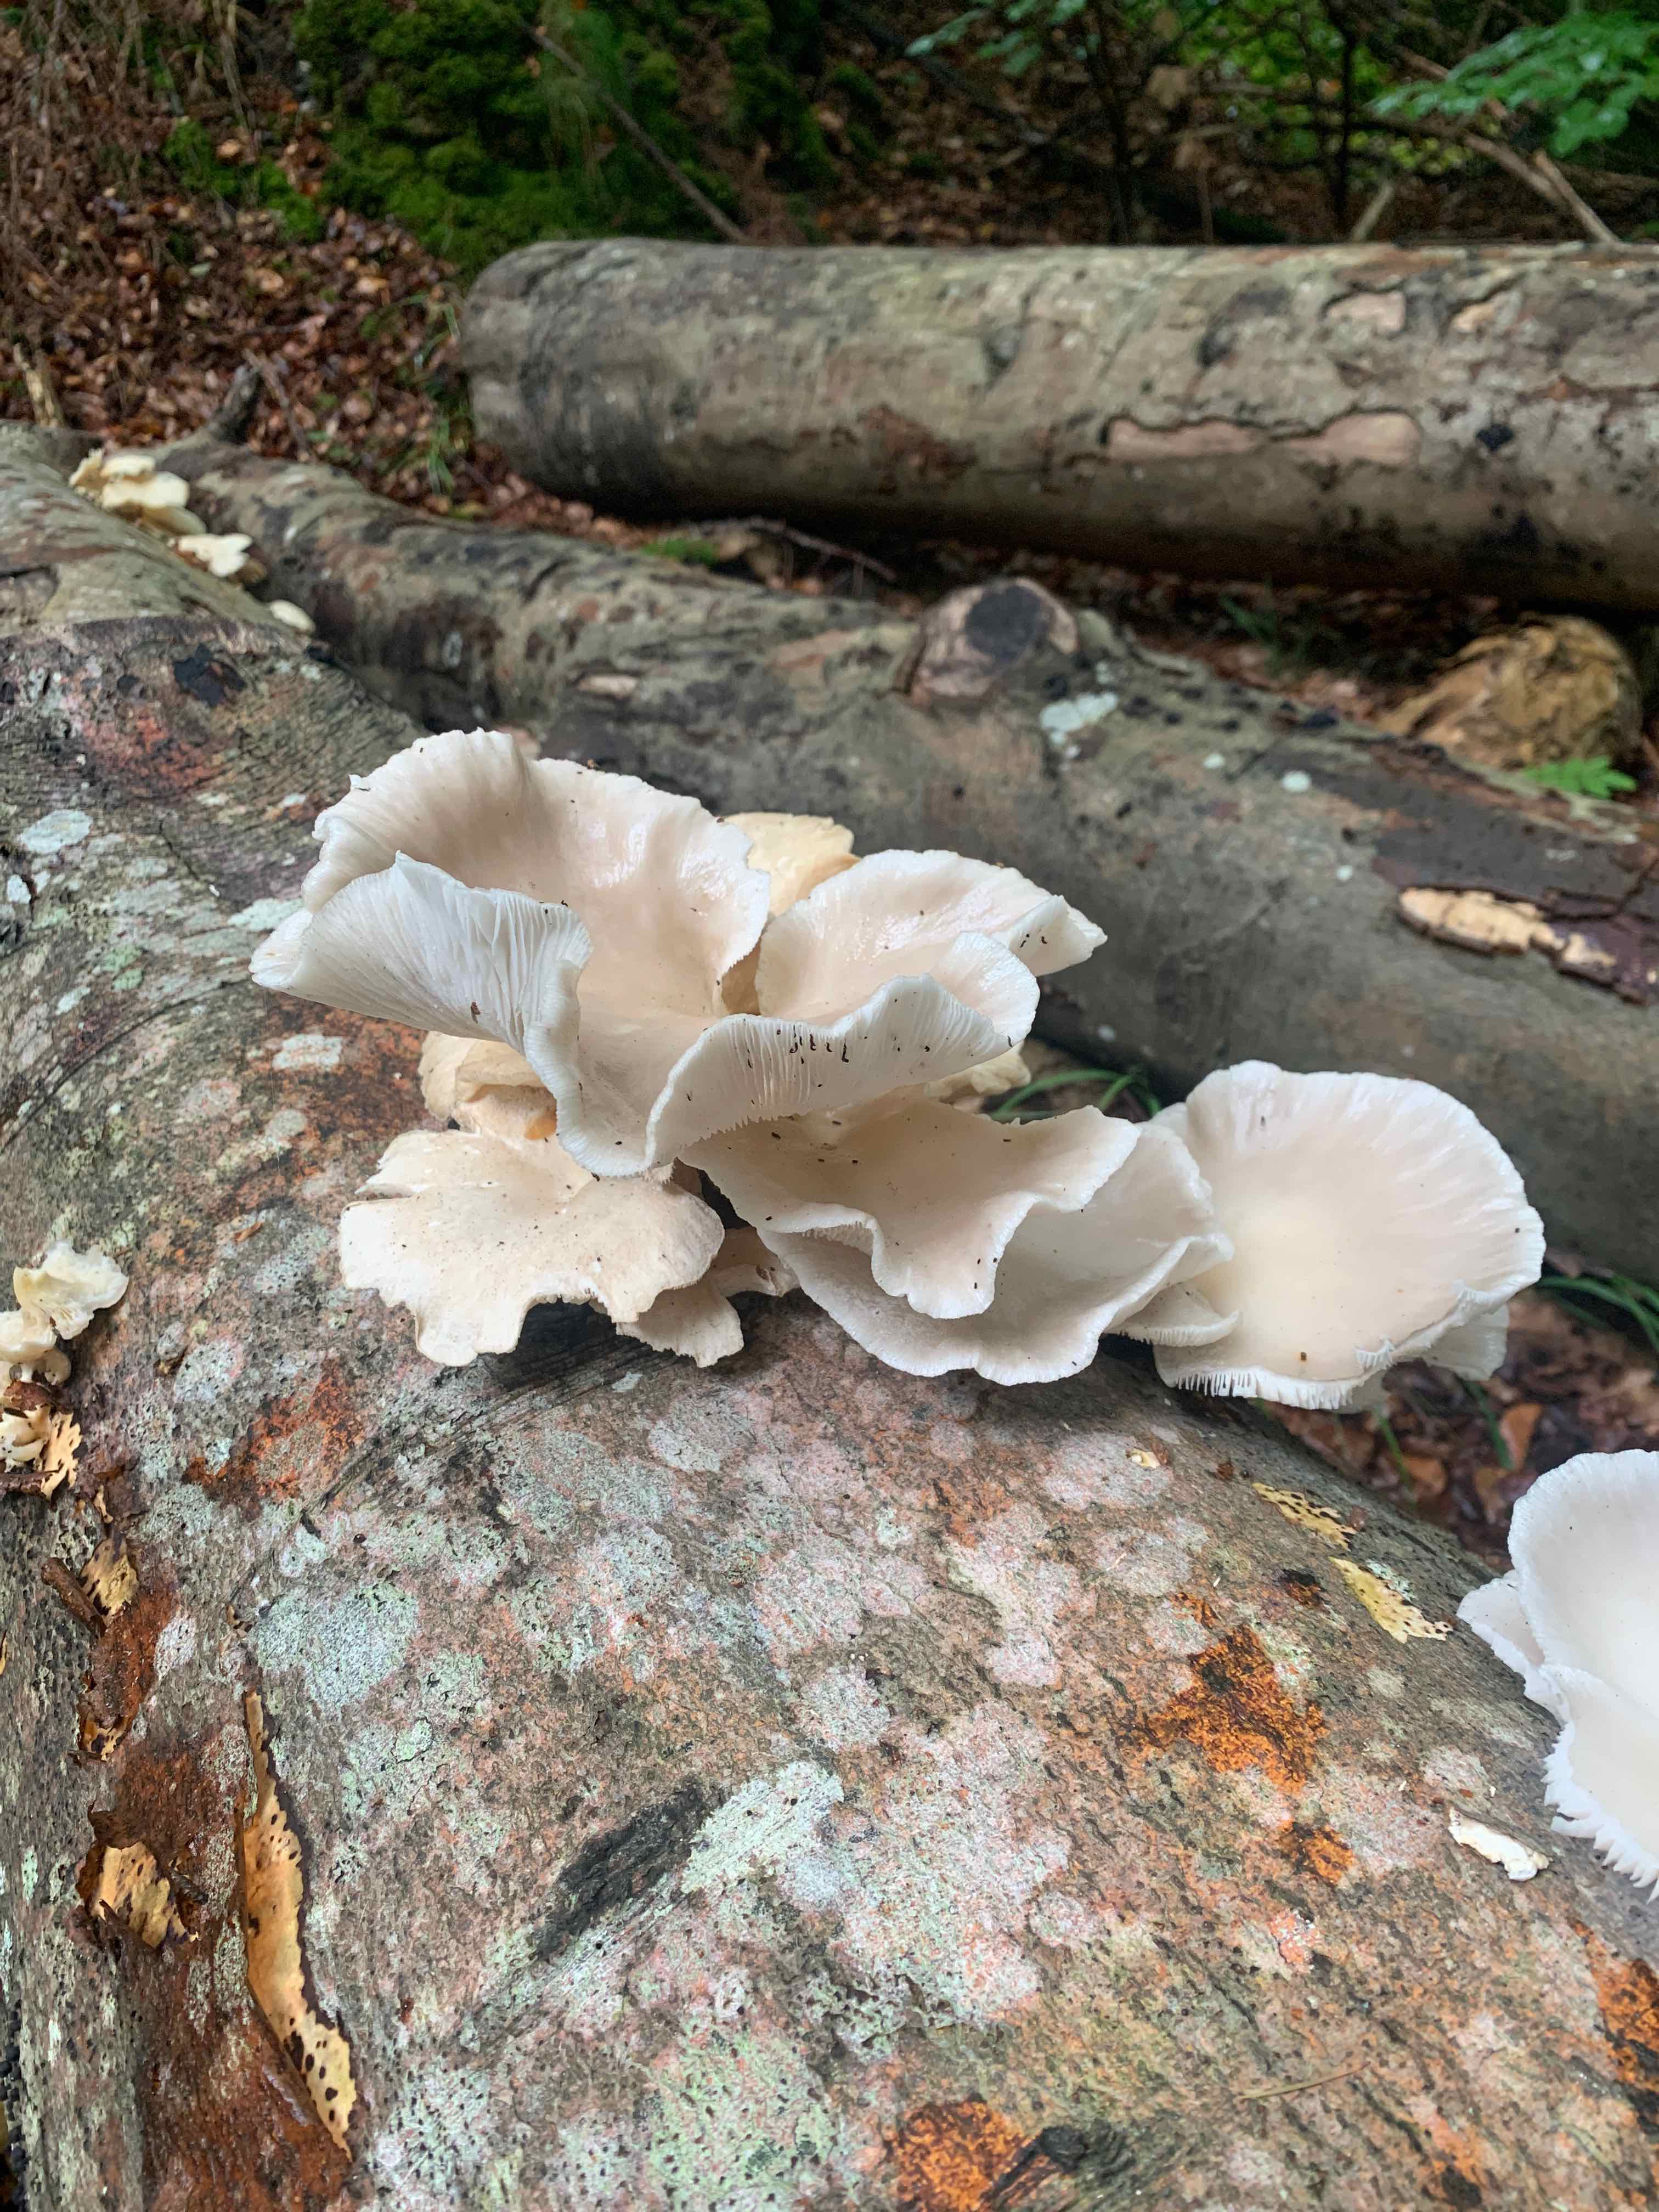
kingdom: Fungi
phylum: Basidiomycota
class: Agaricomycetes
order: Agaricales
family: Pleurotaceae
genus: Pleurotus
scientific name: Pleurotus pulmonarius
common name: sommer-østershat
